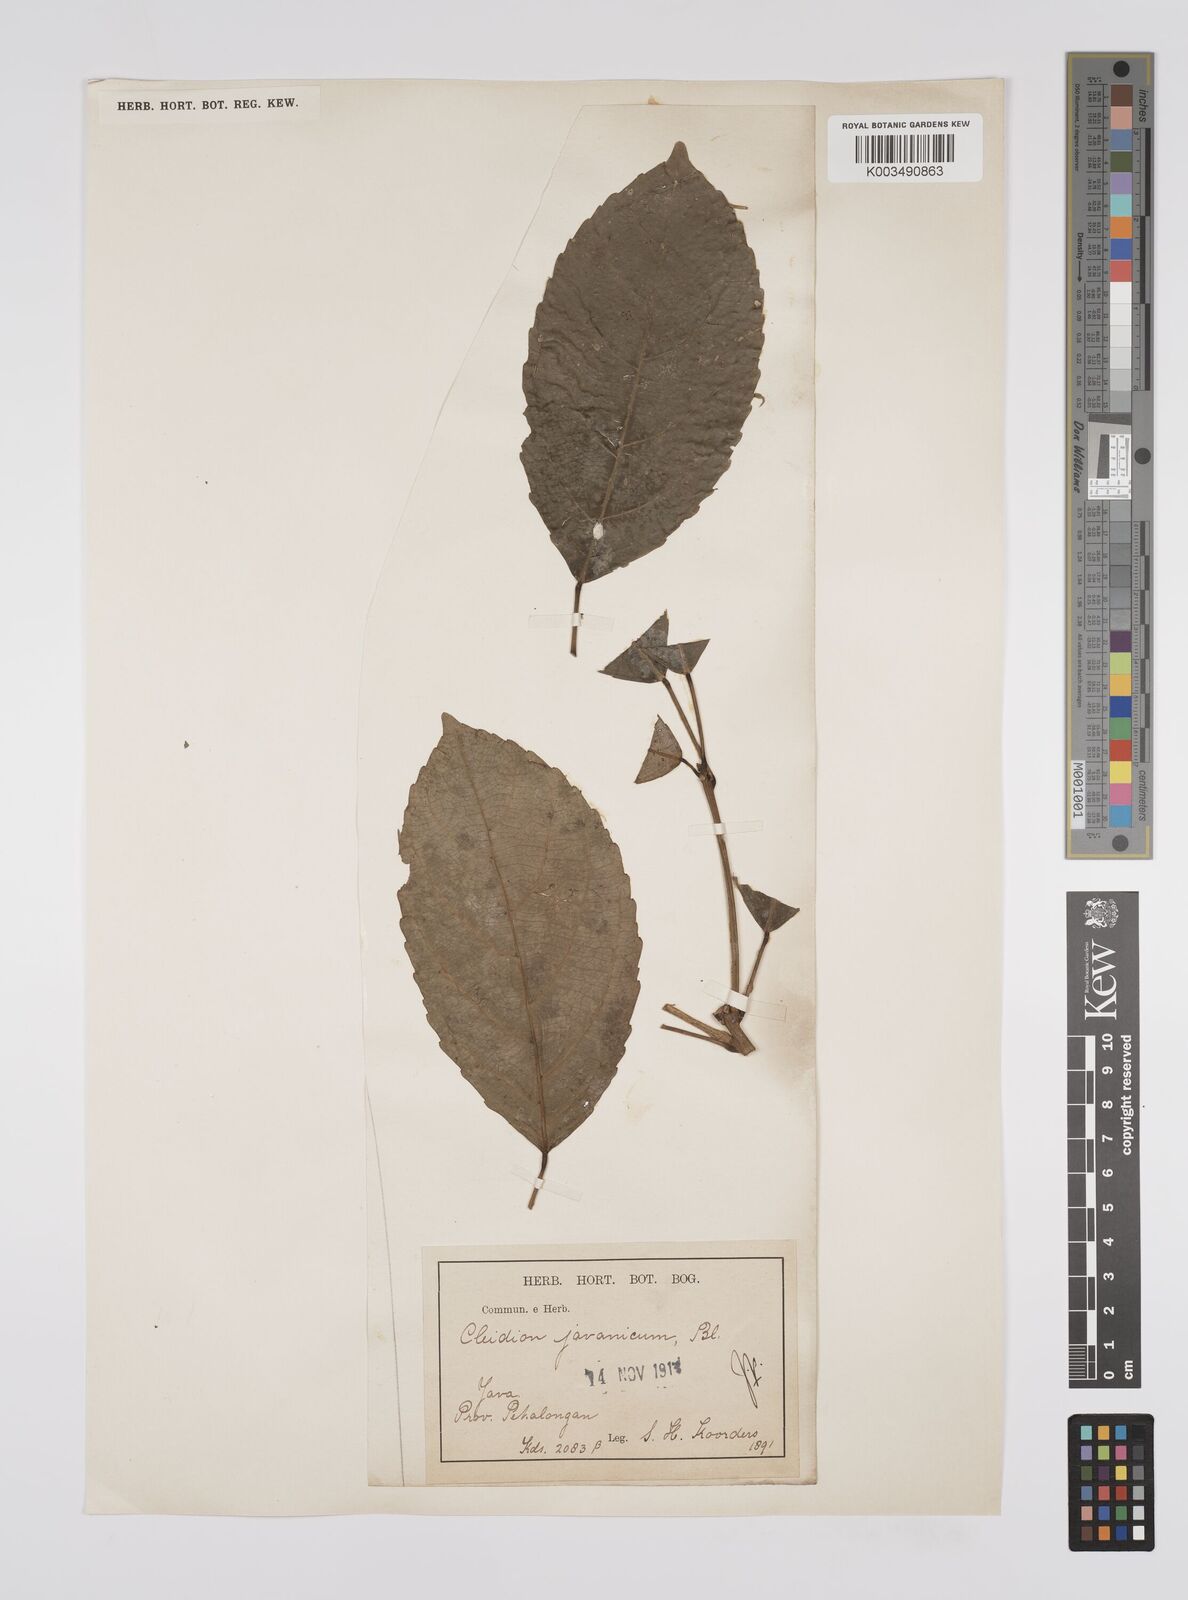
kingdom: Plantae
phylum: Tracheophyta
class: Magnoliopsida
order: Malpighiales
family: Euphorbiaceae
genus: Acalypha
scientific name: Acalypha spiciflora
